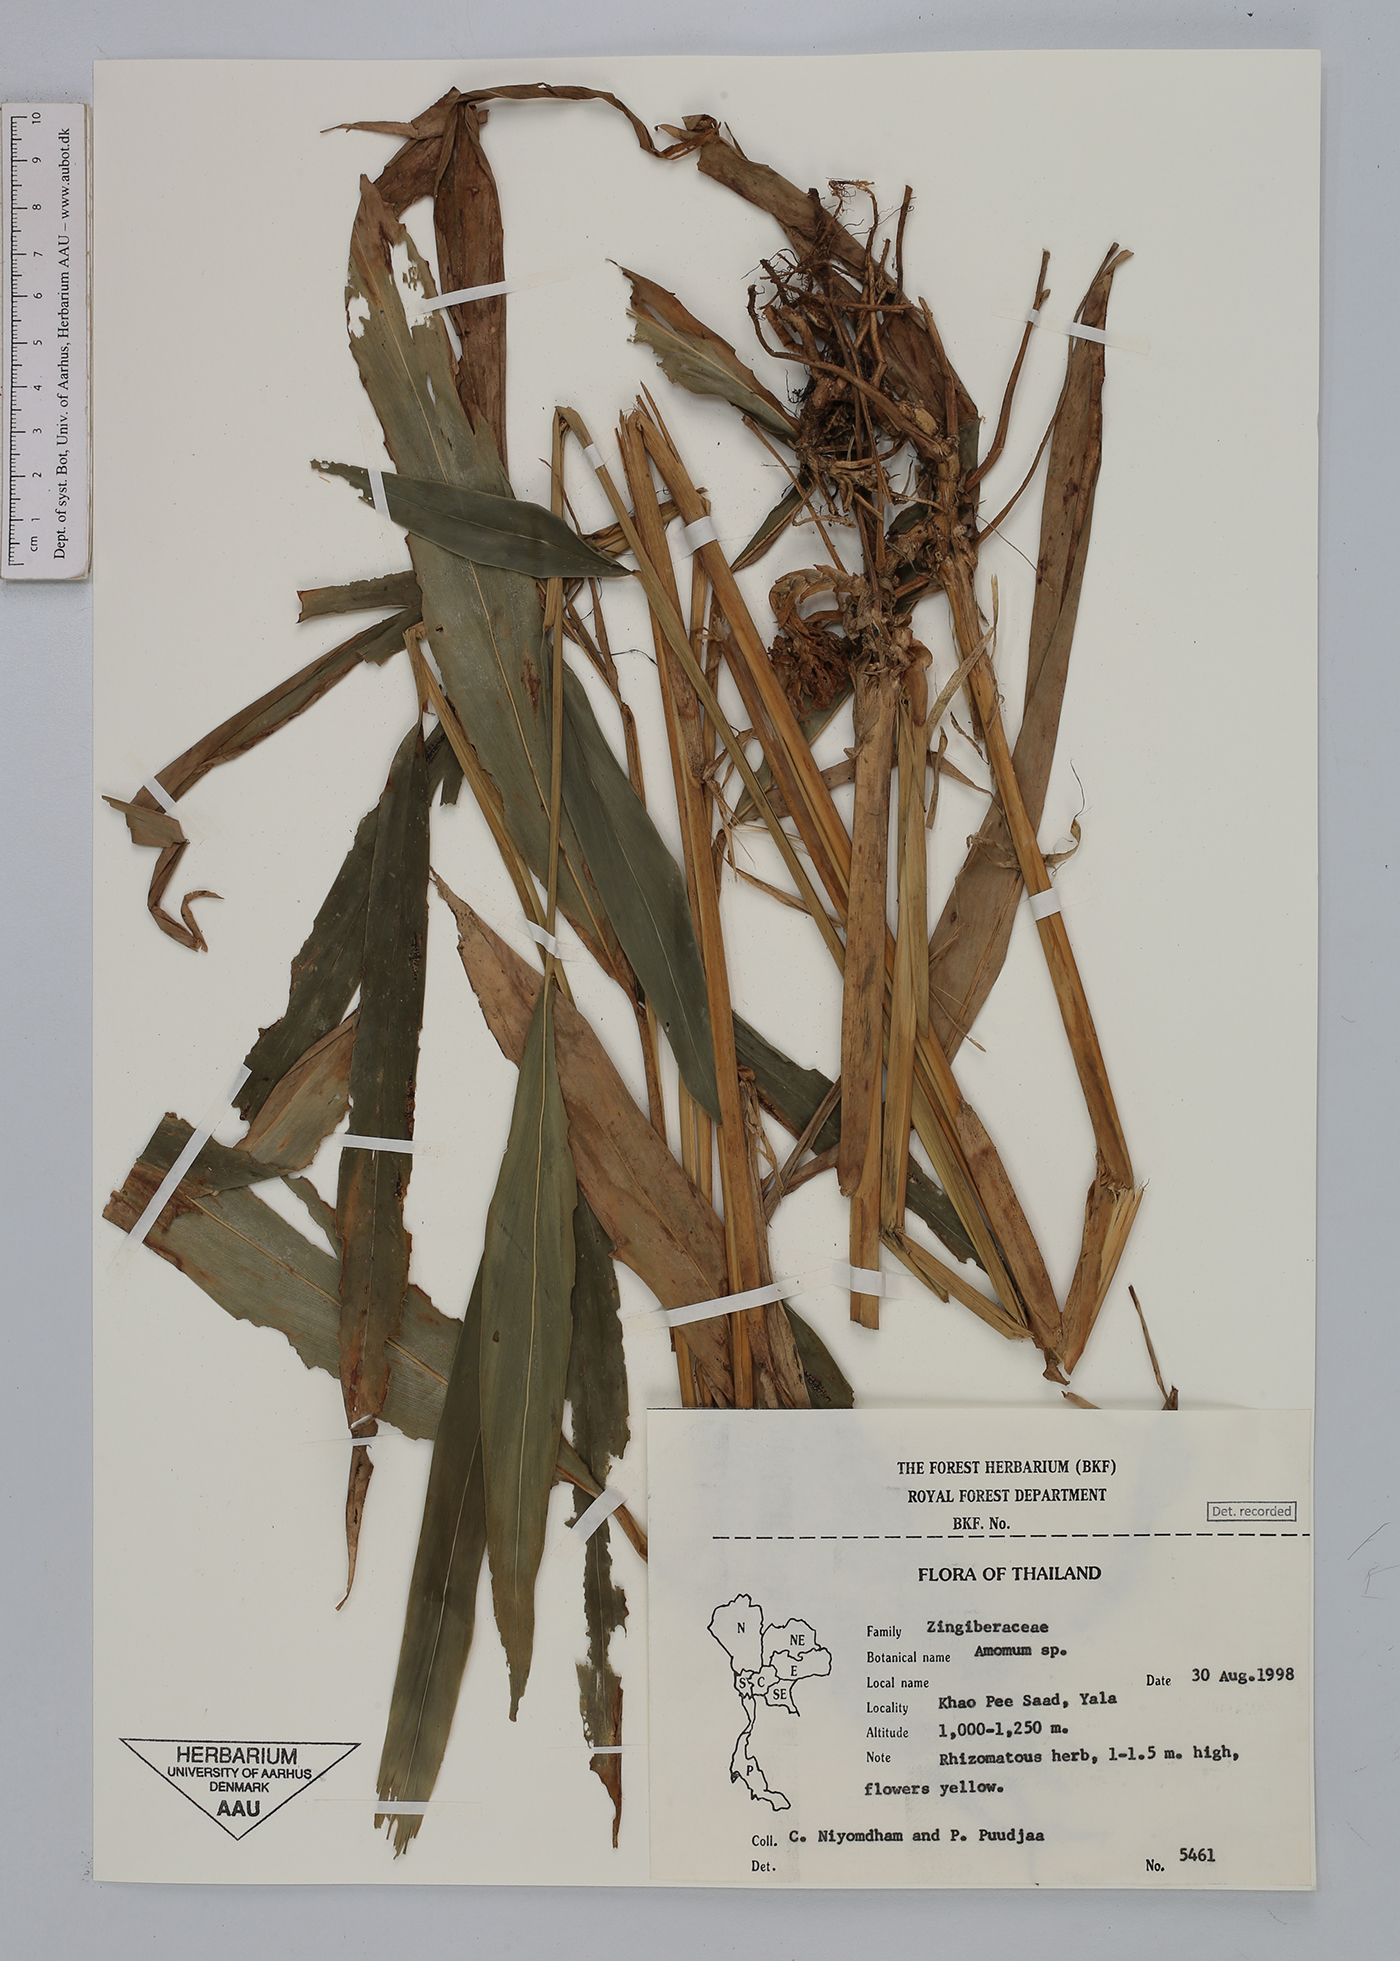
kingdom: Plantae
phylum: Tracheophyta
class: Liliopsida
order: Zingiberales
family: Zingiberaceae
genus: Amomum
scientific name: Amomum
